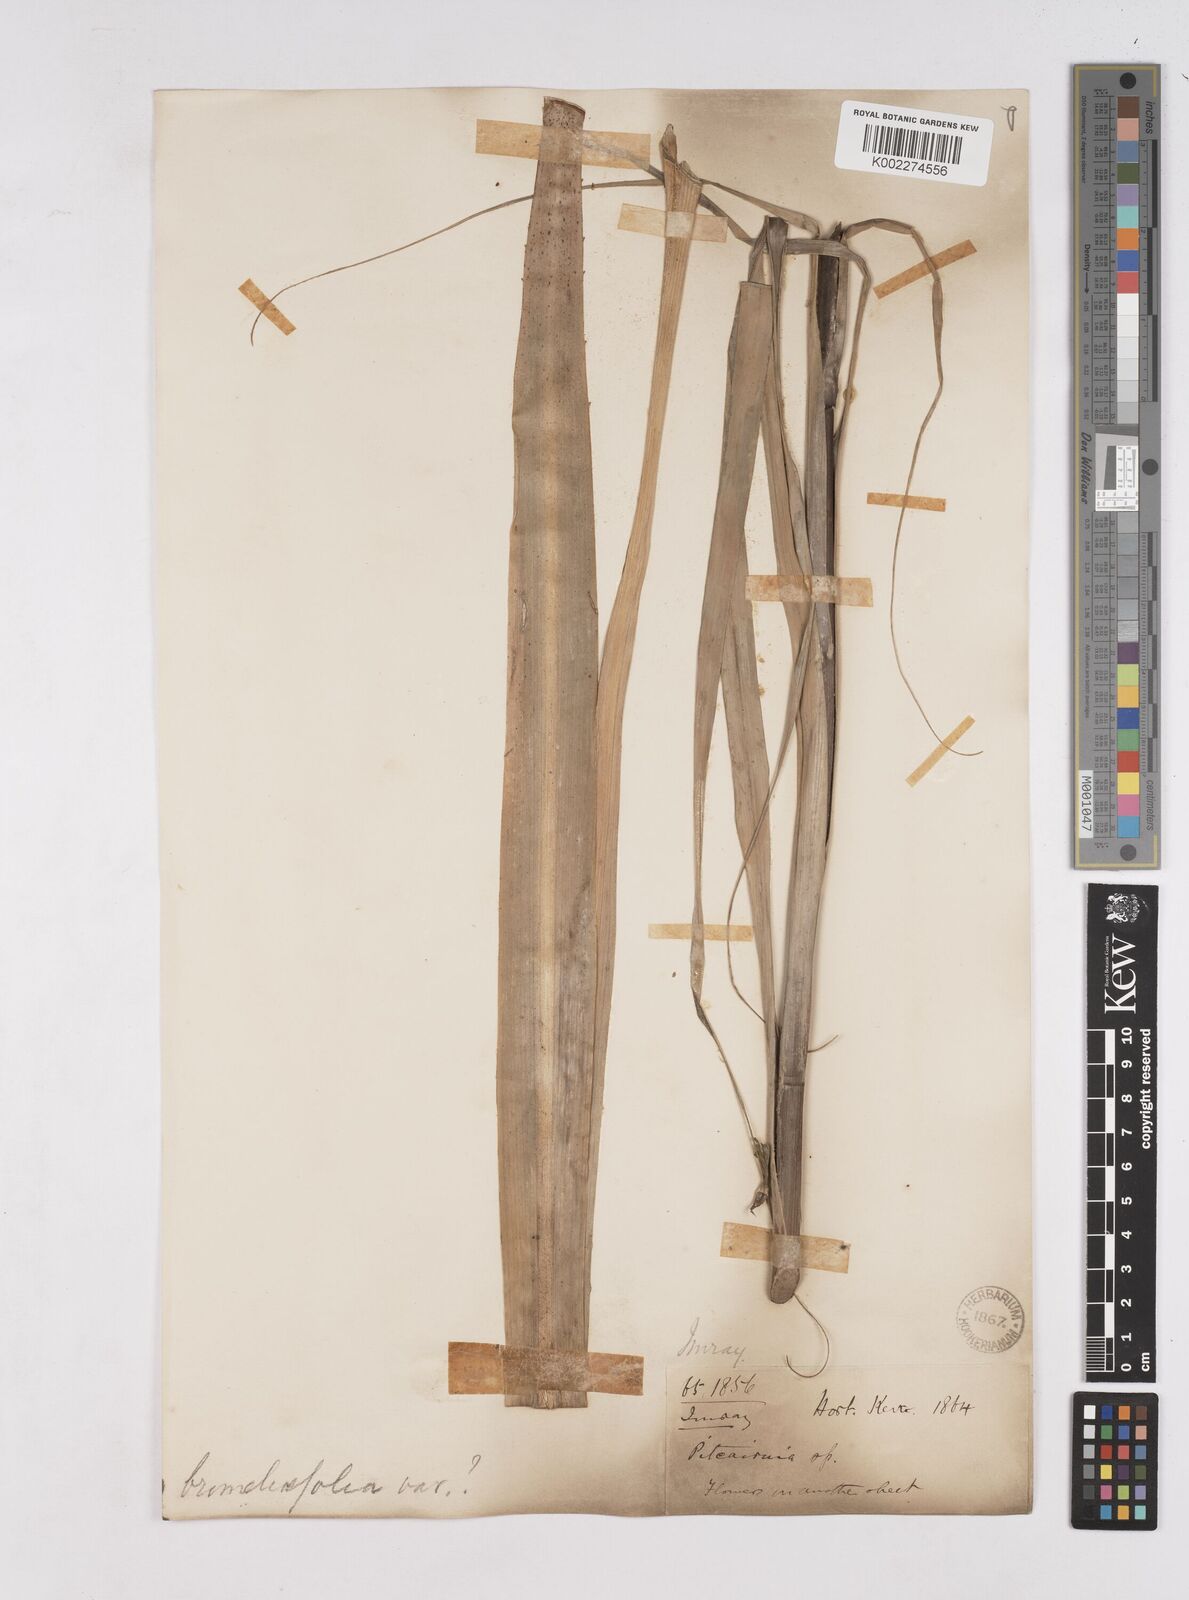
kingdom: Plantae
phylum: Tracheophyta
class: Liliopsida
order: Poales
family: Bromeliaceae
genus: Pitcairnia
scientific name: Pitcairnia angustifolia
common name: Clapper
